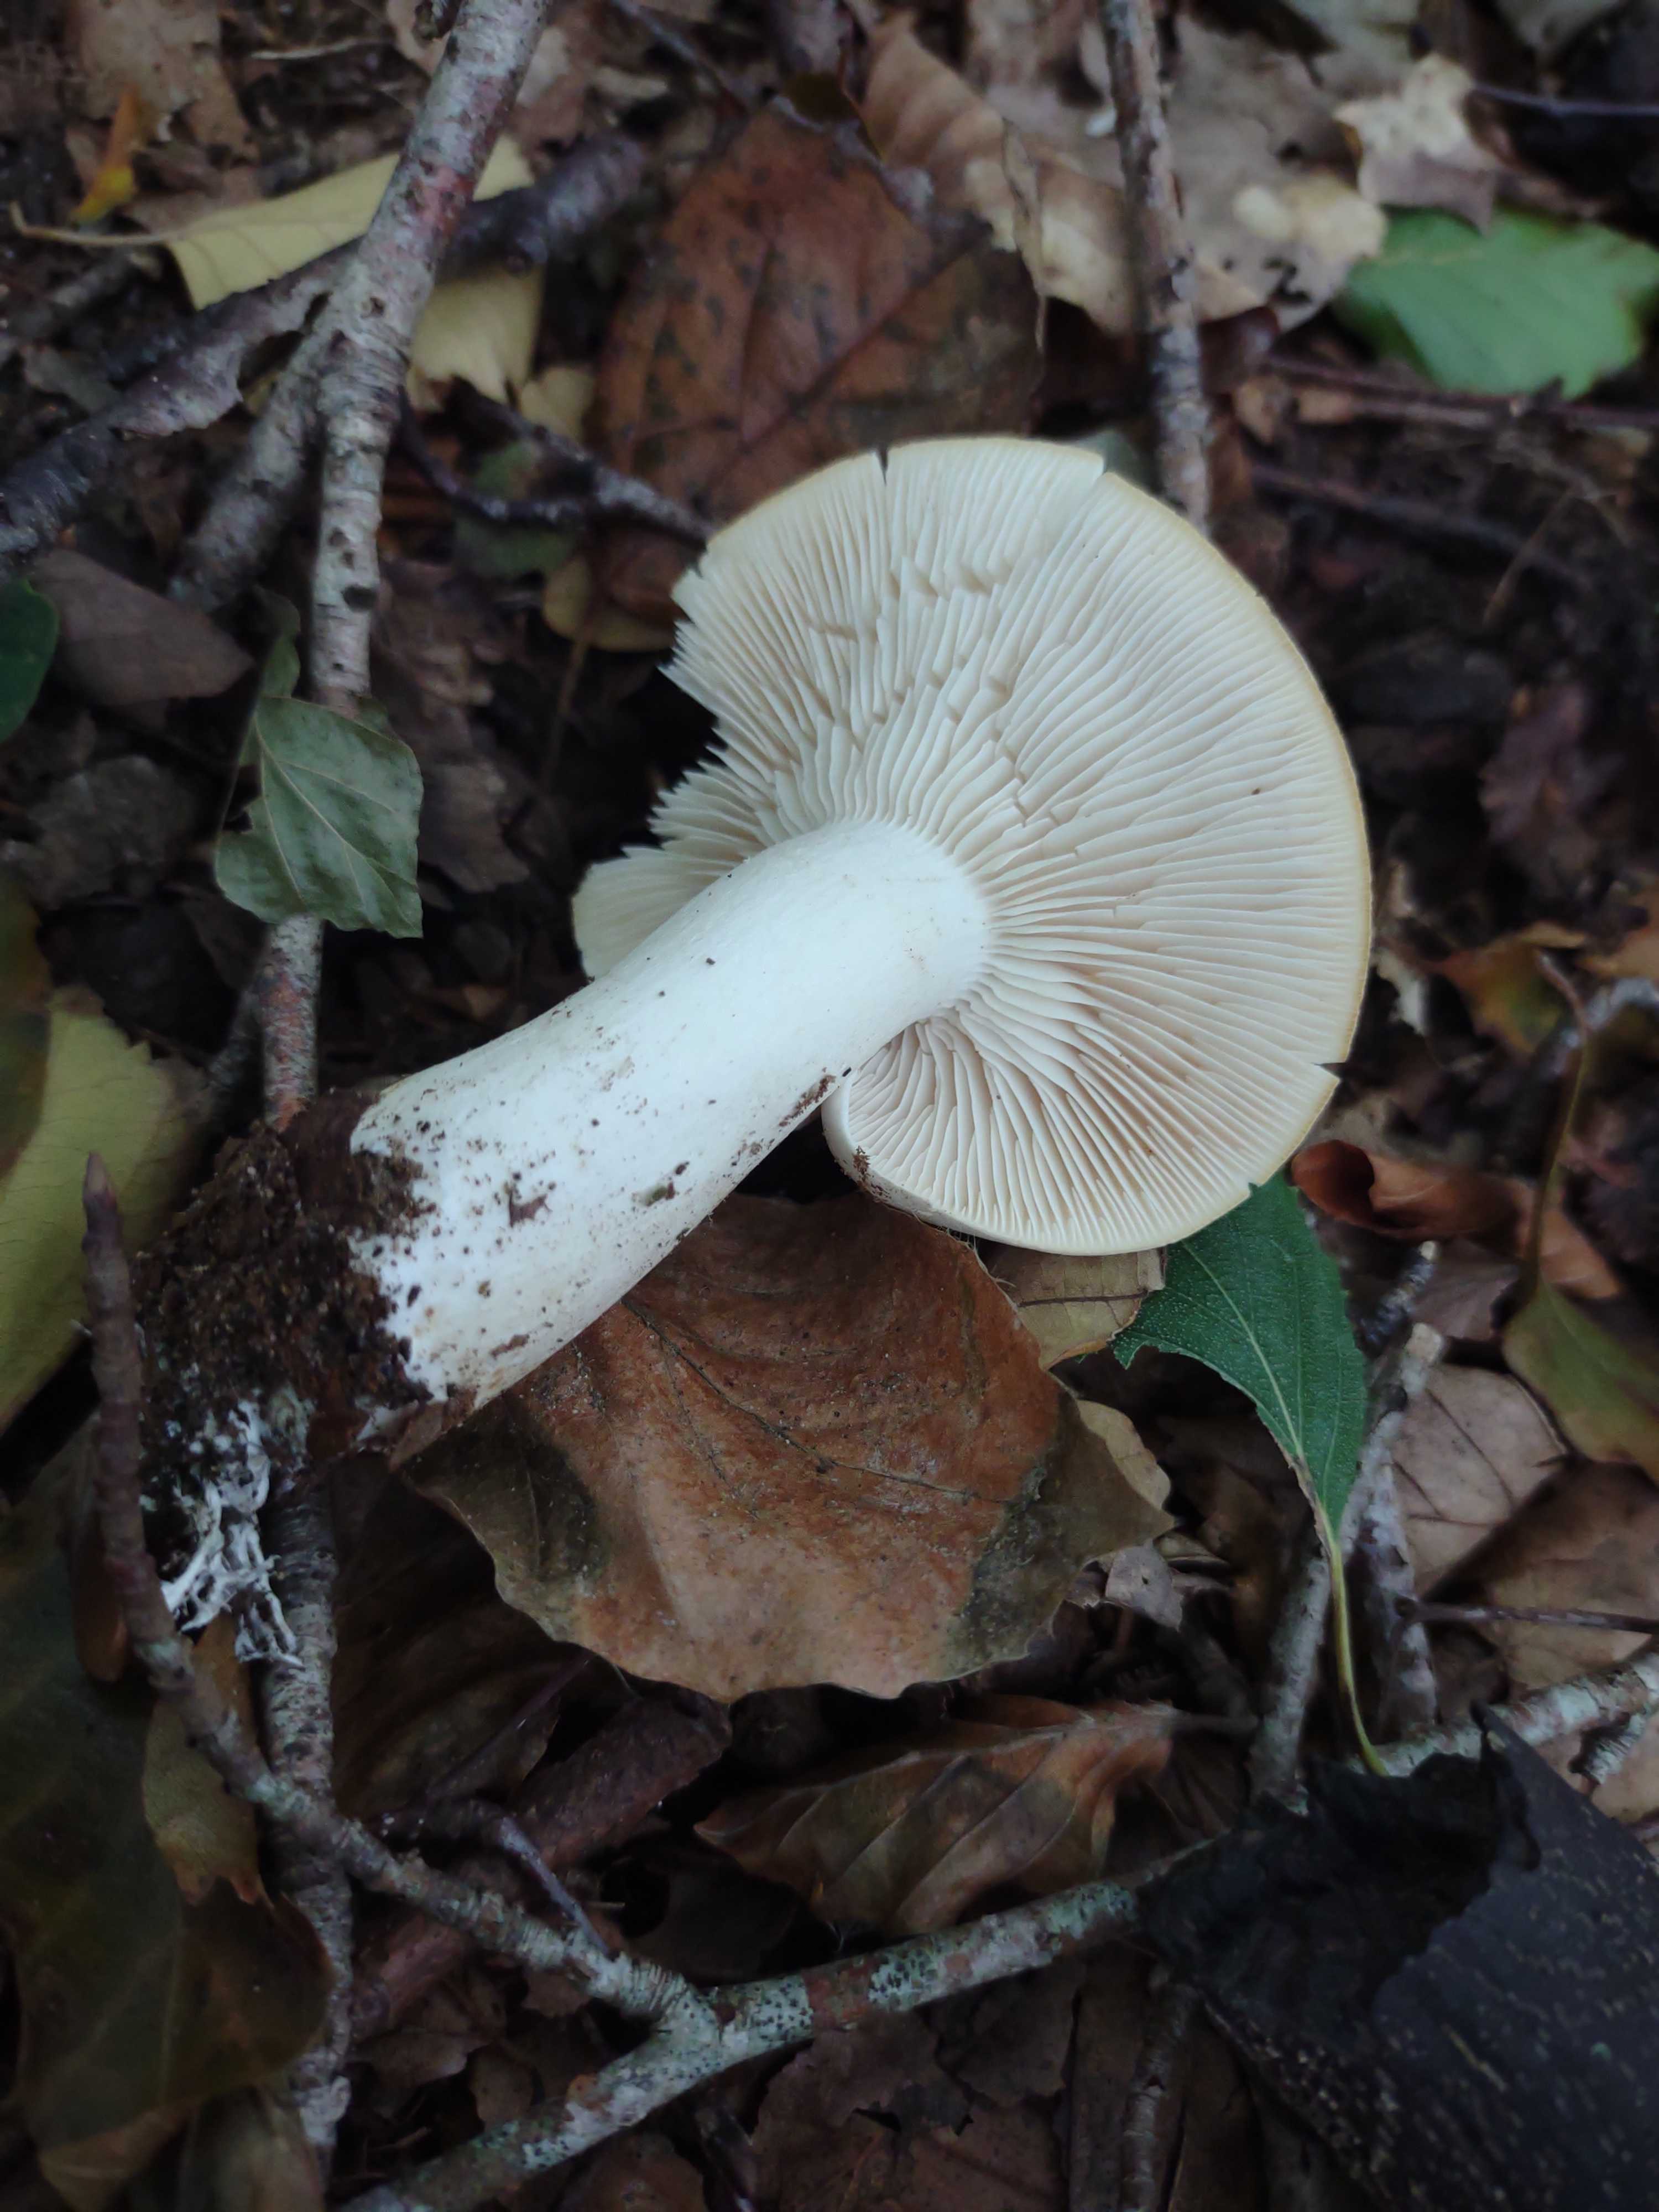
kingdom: Fungi
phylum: Basidiomycota
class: Agaricomycetes
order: Agaricales
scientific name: Agaricales
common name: champignonordenen
